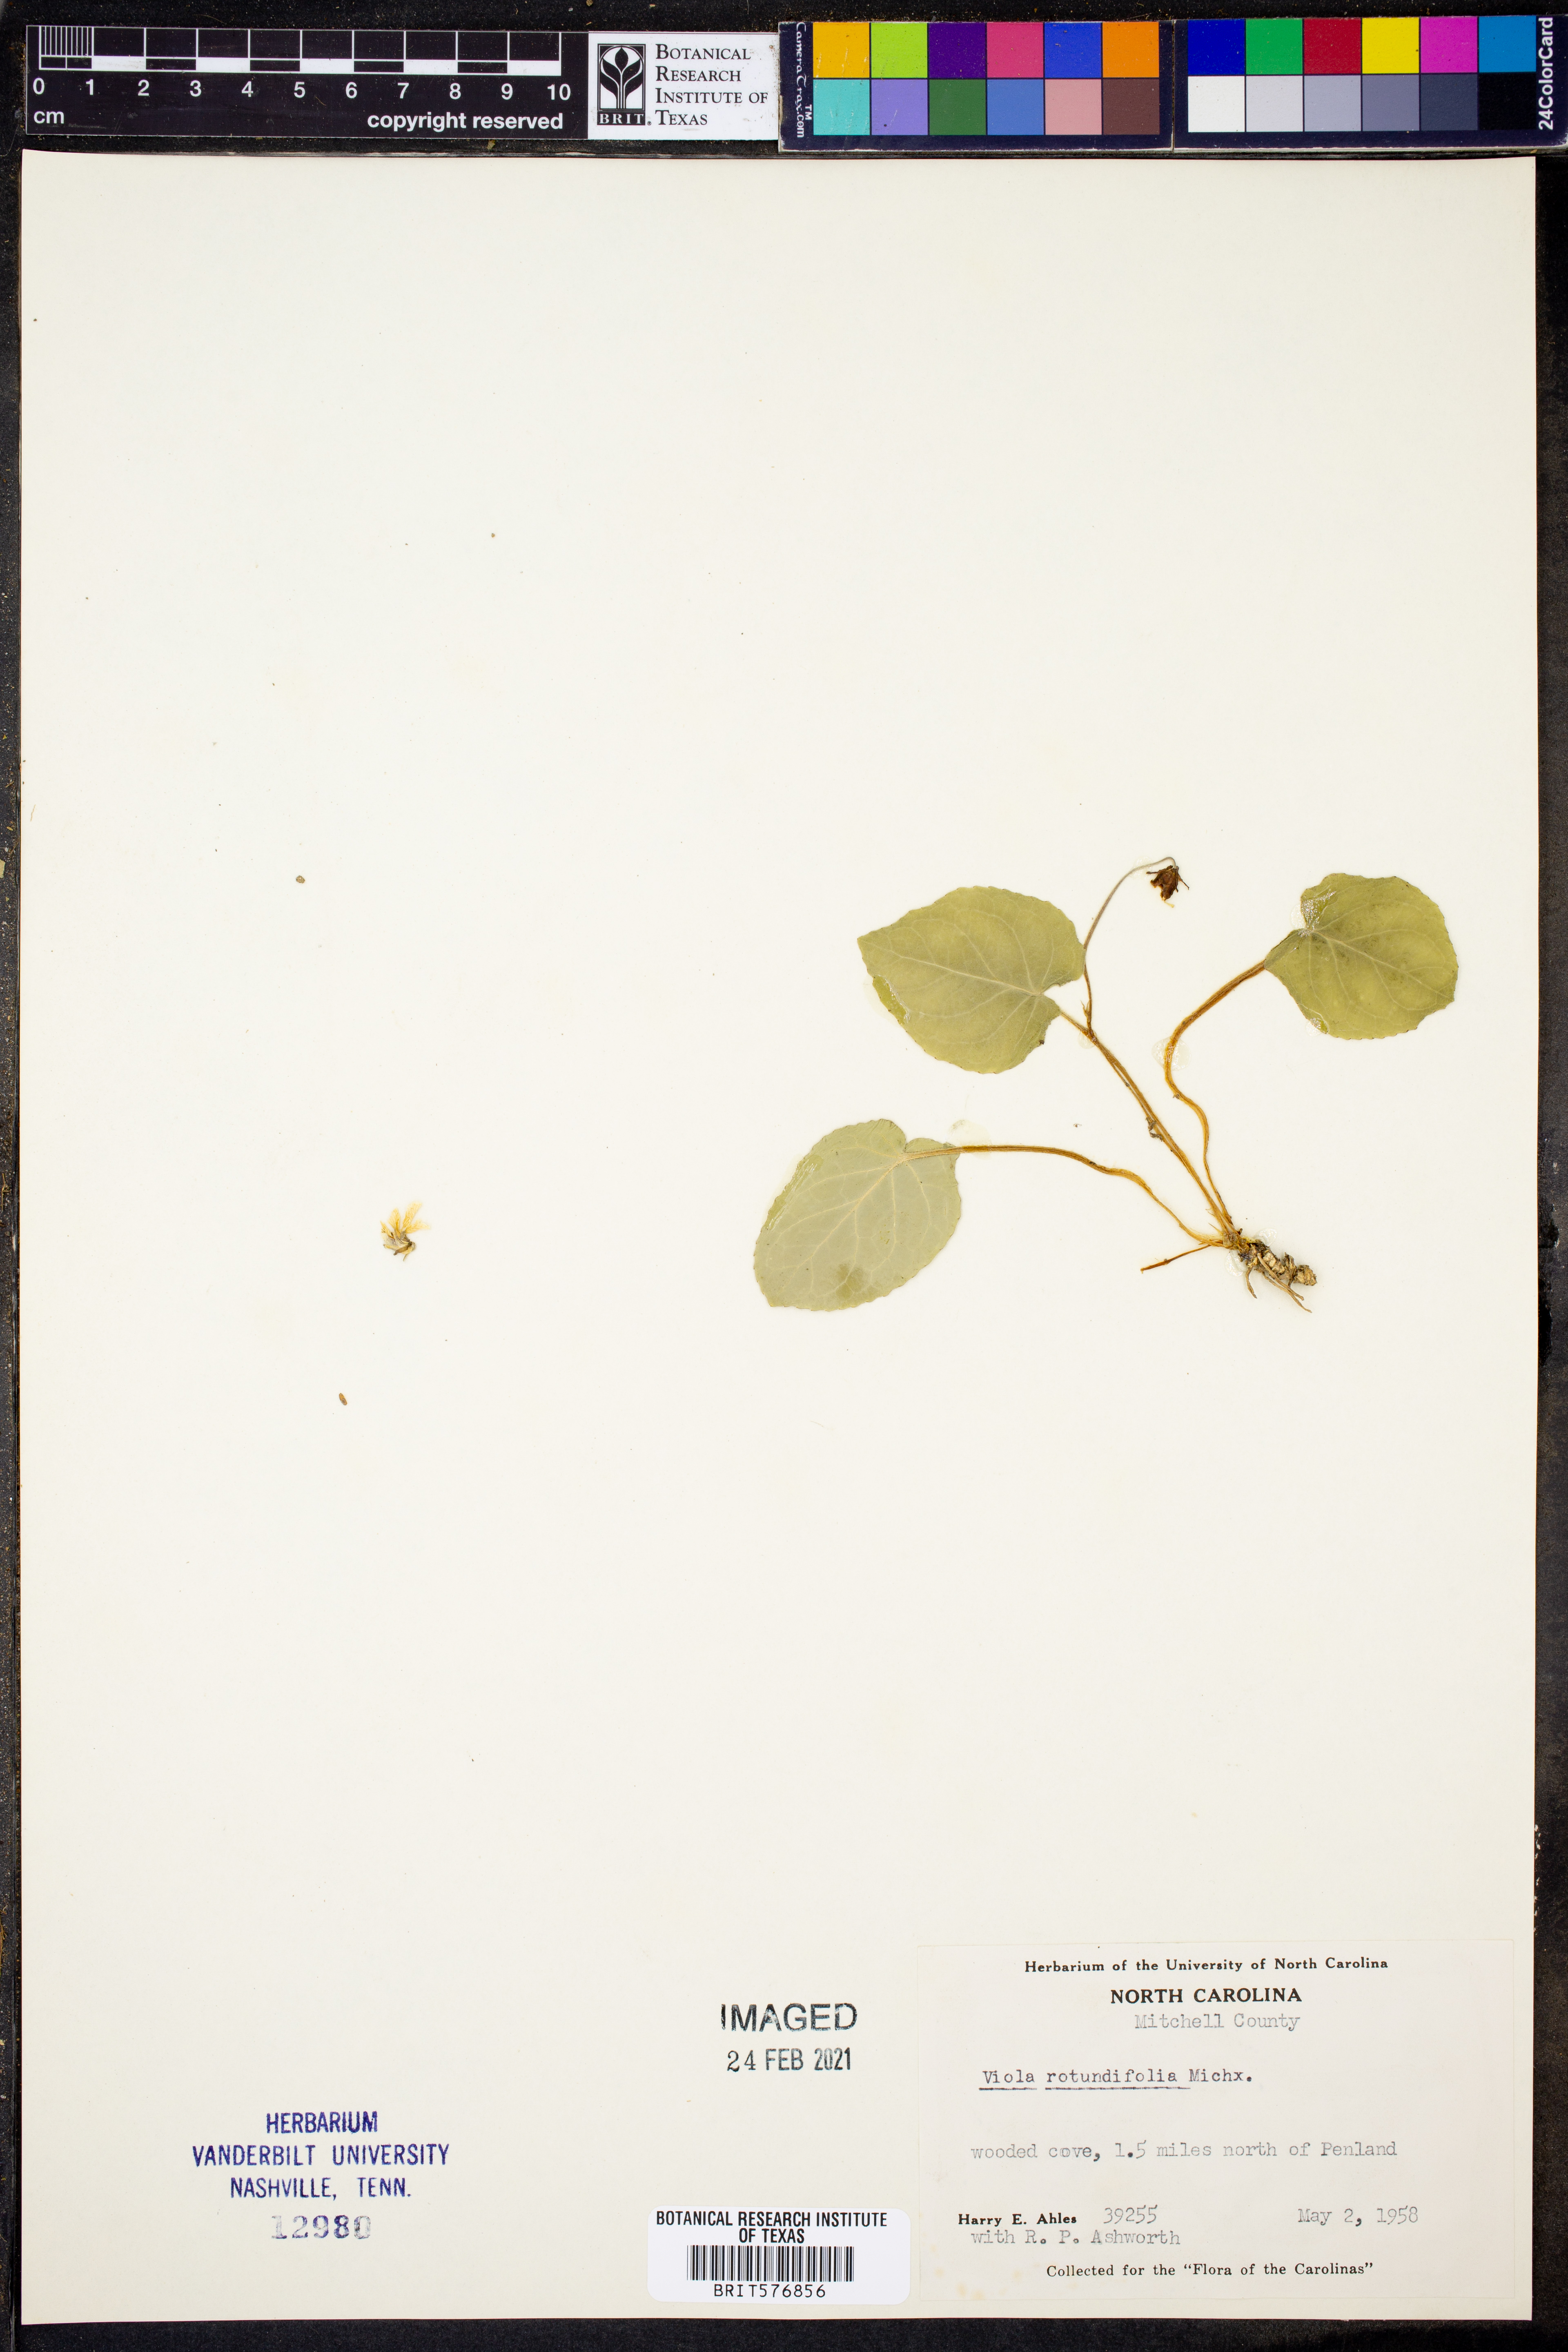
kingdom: Plantae
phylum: Tracheophyta
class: Magnoliopsida
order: Malpighiales
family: Violaceae
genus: Viola
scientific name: Viola rotundifolia
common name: Early yellow violet
